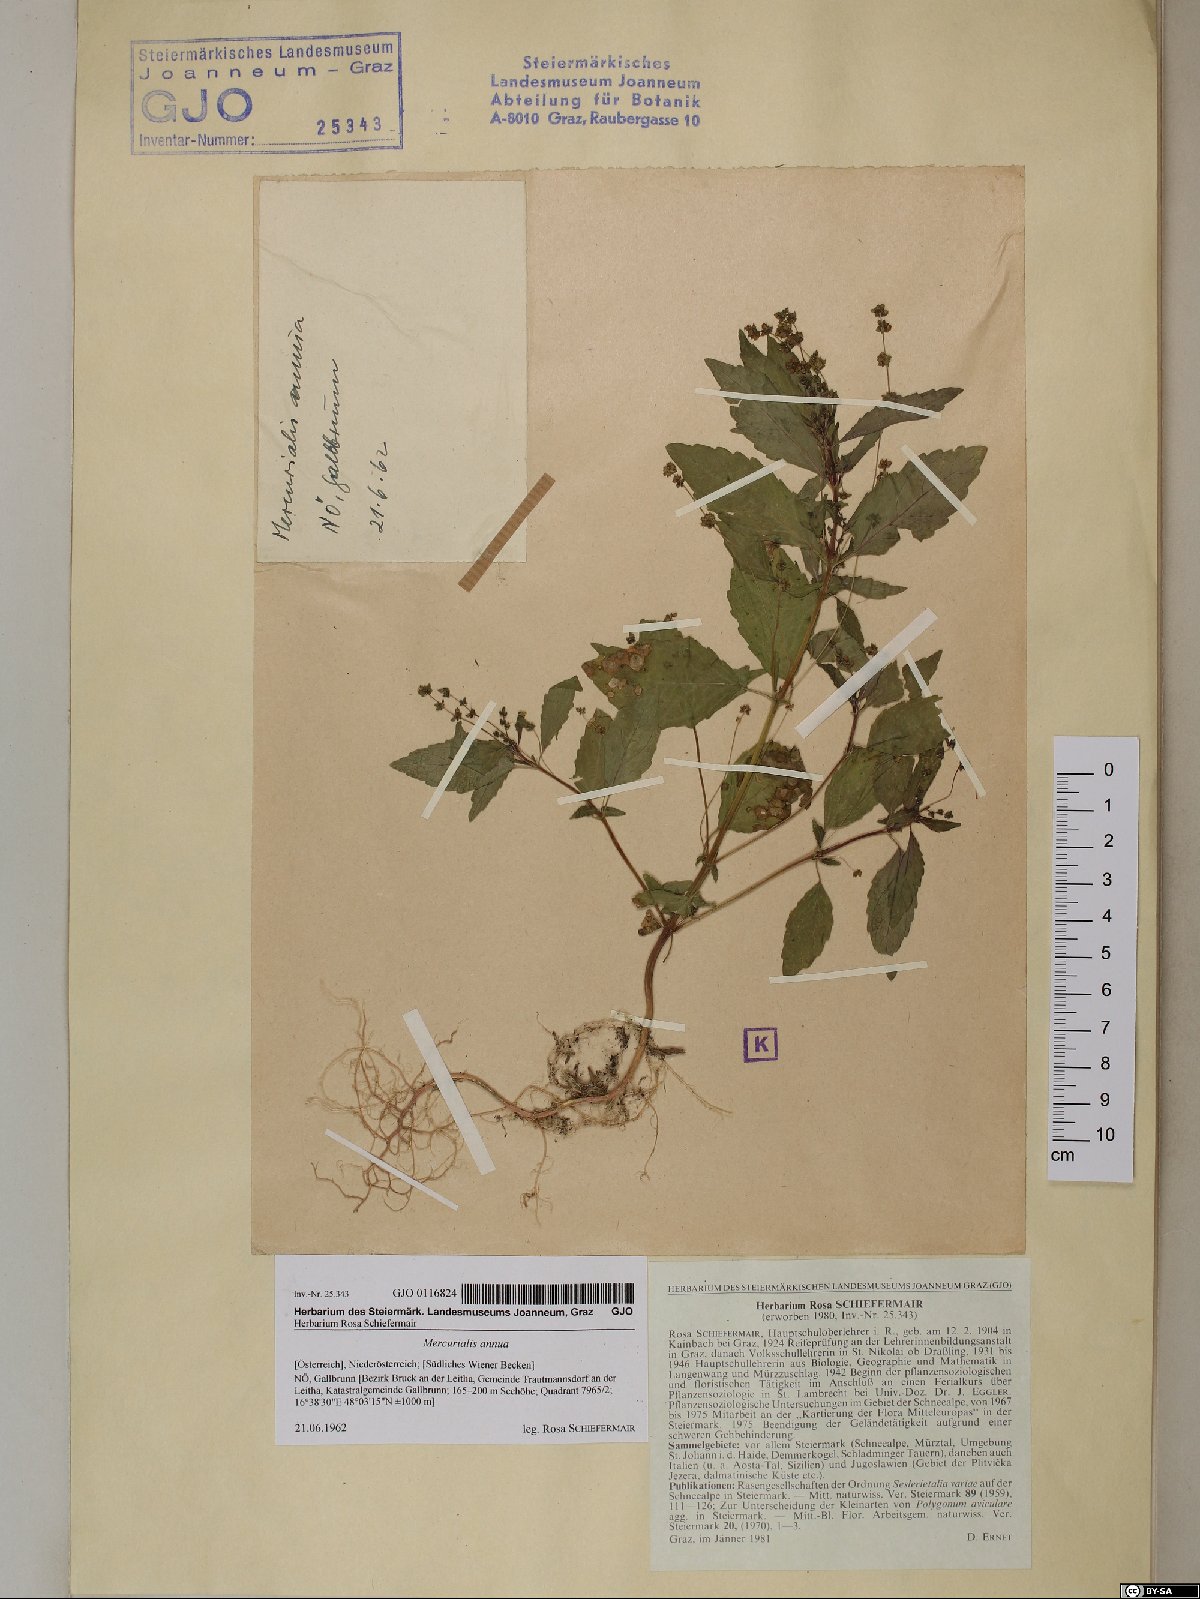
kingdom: Plantae
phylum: Tracheophyta
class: Magnoliopsida
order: Malpighiales
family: Euphorbiaceae
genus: Mercurialis
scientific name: Mercurialis annua
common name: Annual mercury
